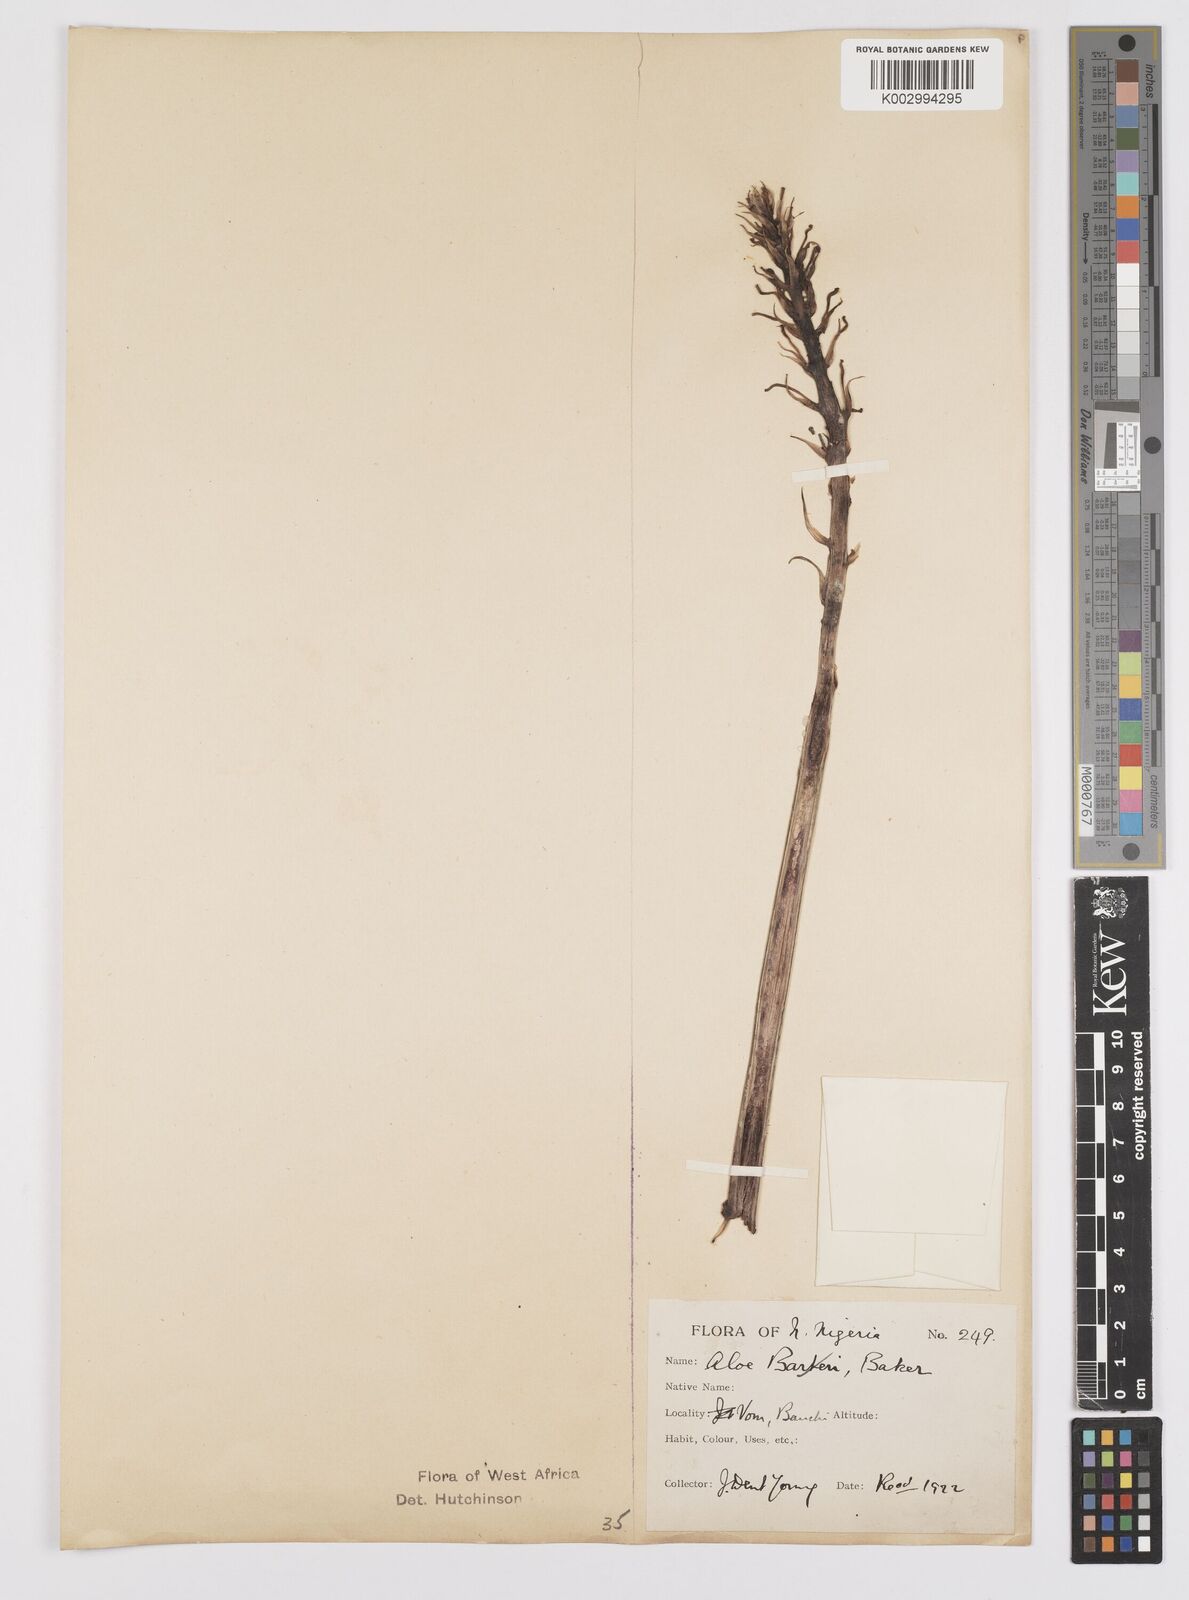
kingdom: Plantae
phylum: Tracheophyta
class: Liliopsida
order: Asparagales
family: Asphodelaceae
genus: Aloe
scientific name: Aloe
